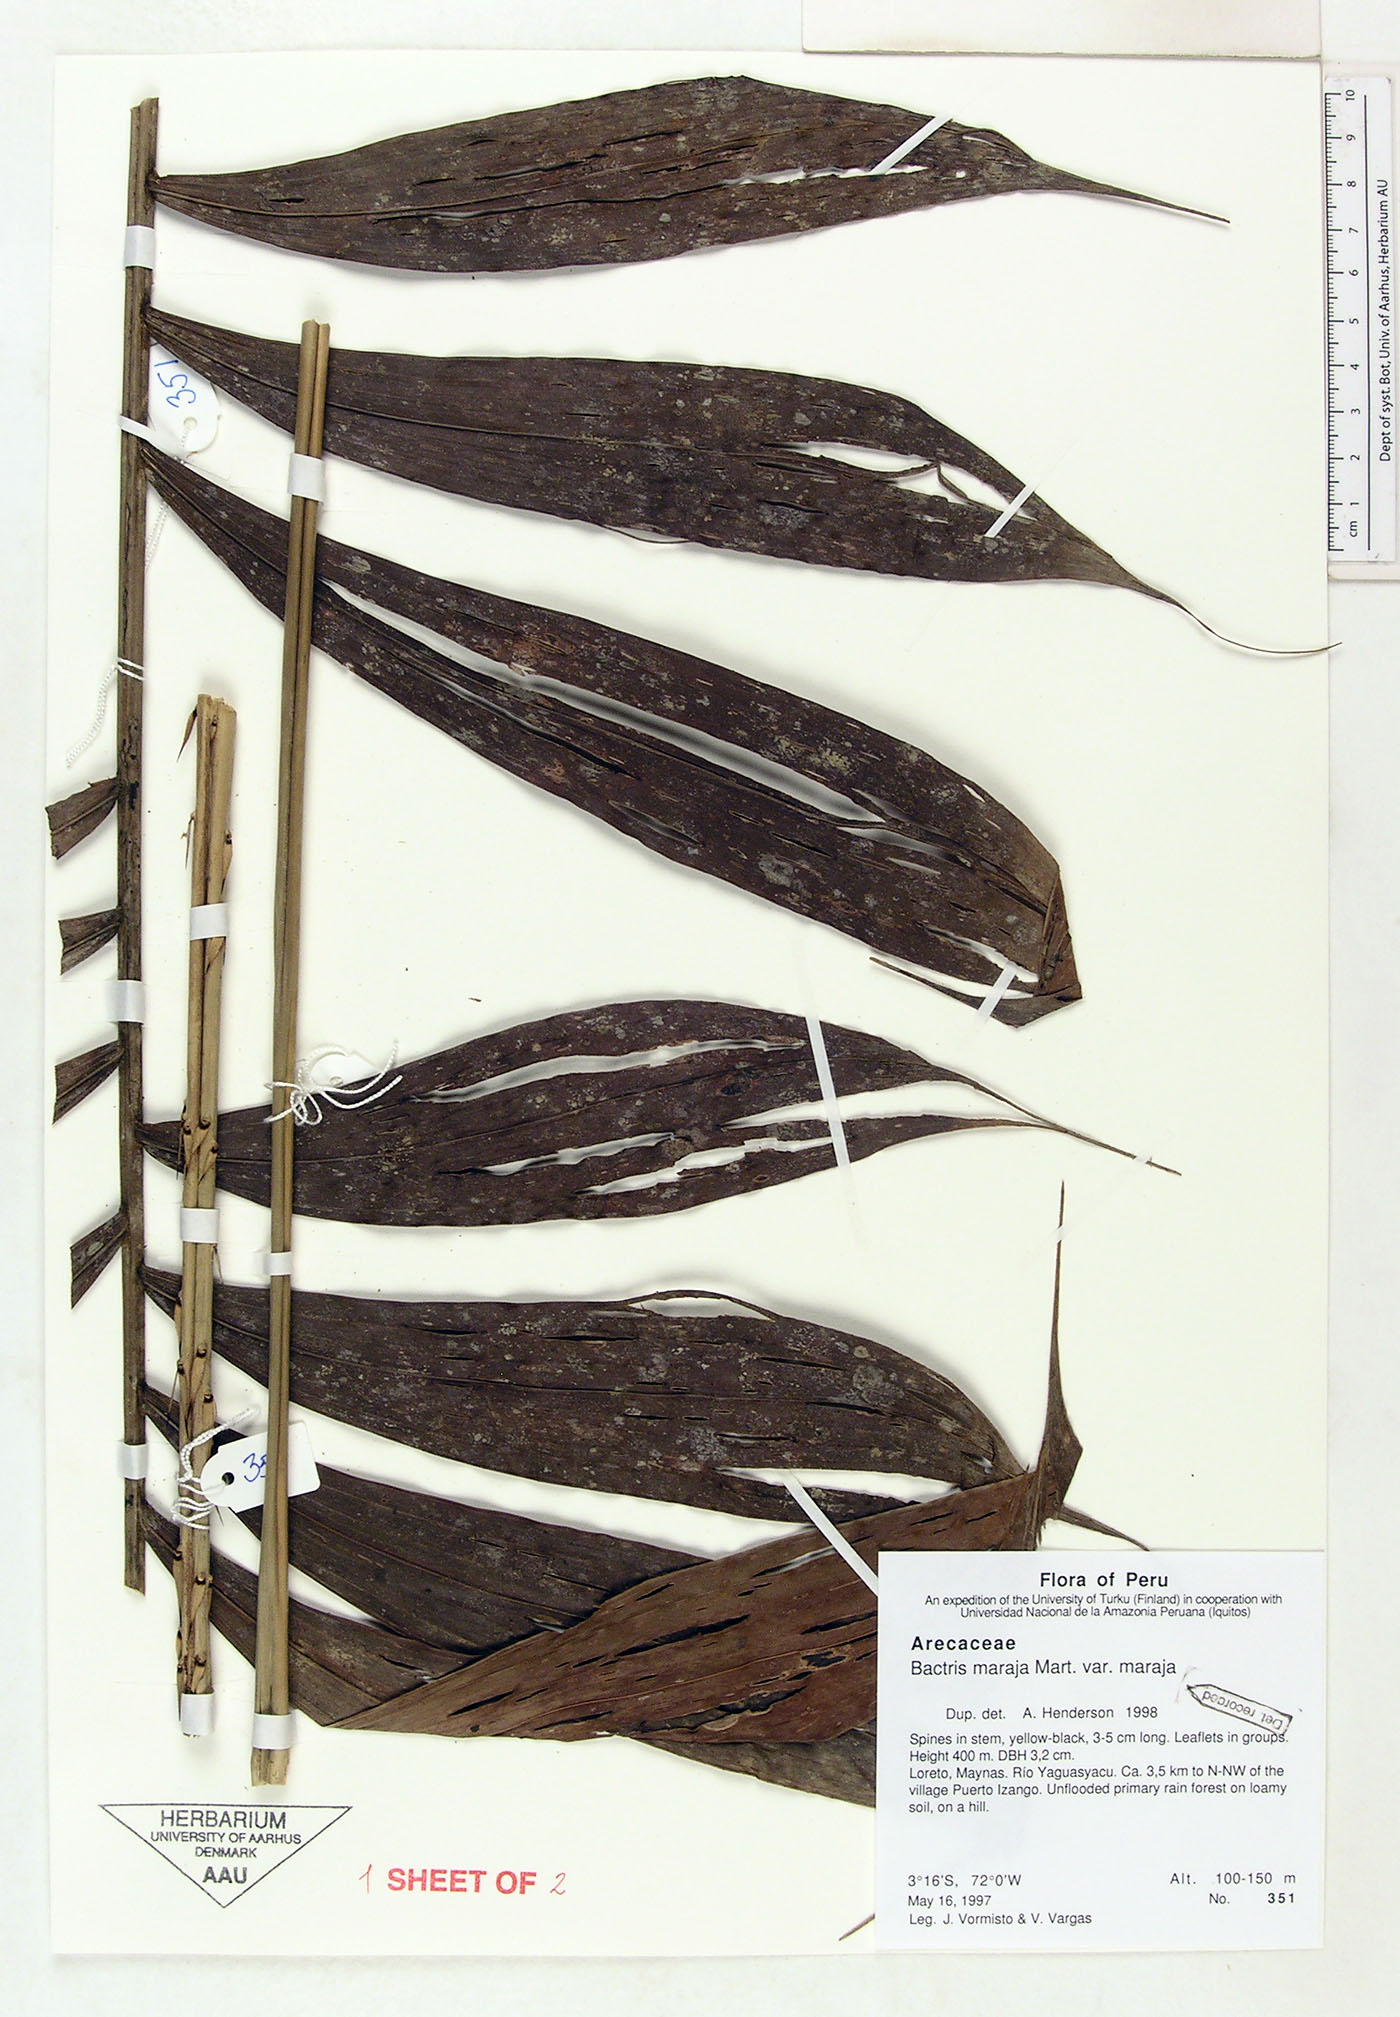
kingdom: Plantae
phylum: Tracheophyta
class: Liliopsida
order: Arecales
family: Arecaceae
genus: Bactris
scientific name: Bactris maraja
